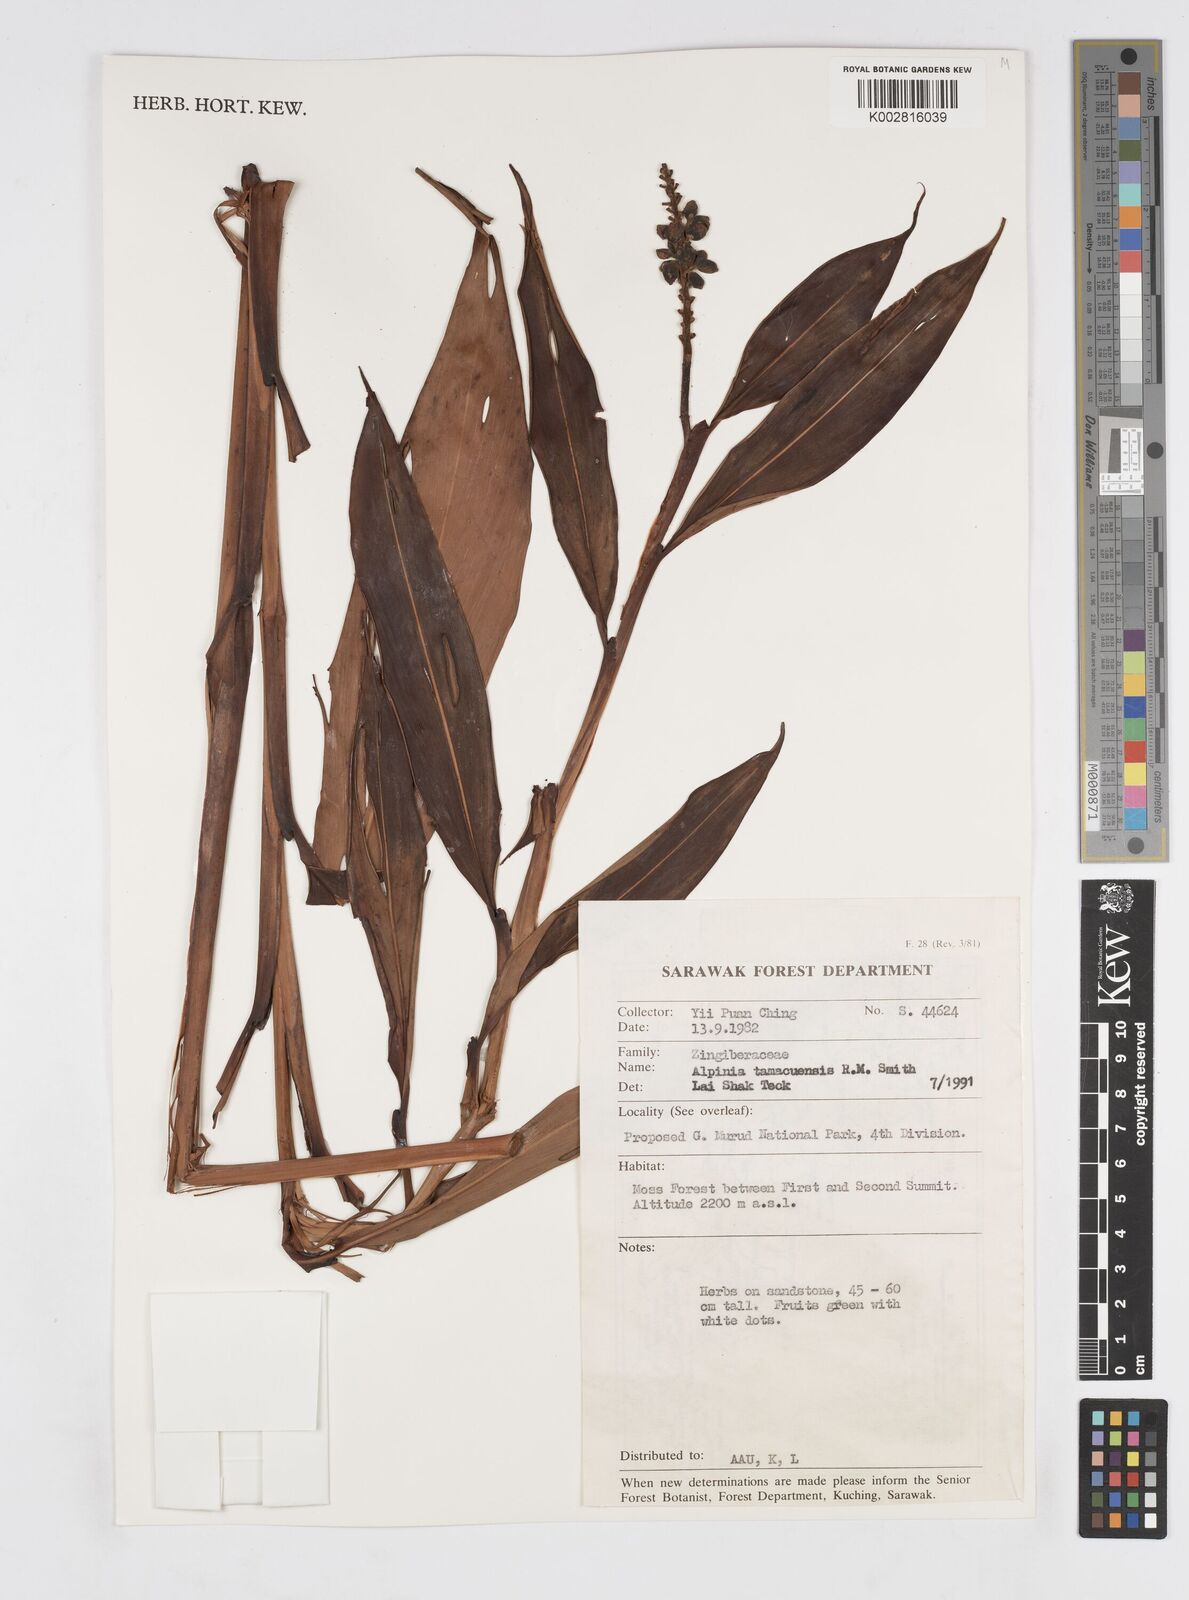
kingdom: Plantae
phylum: Tracheophyta
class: Liliopsida
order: Zingiberales
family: Zingiberaceae
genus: Alpinia
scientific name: Alpinia tamacuensis
